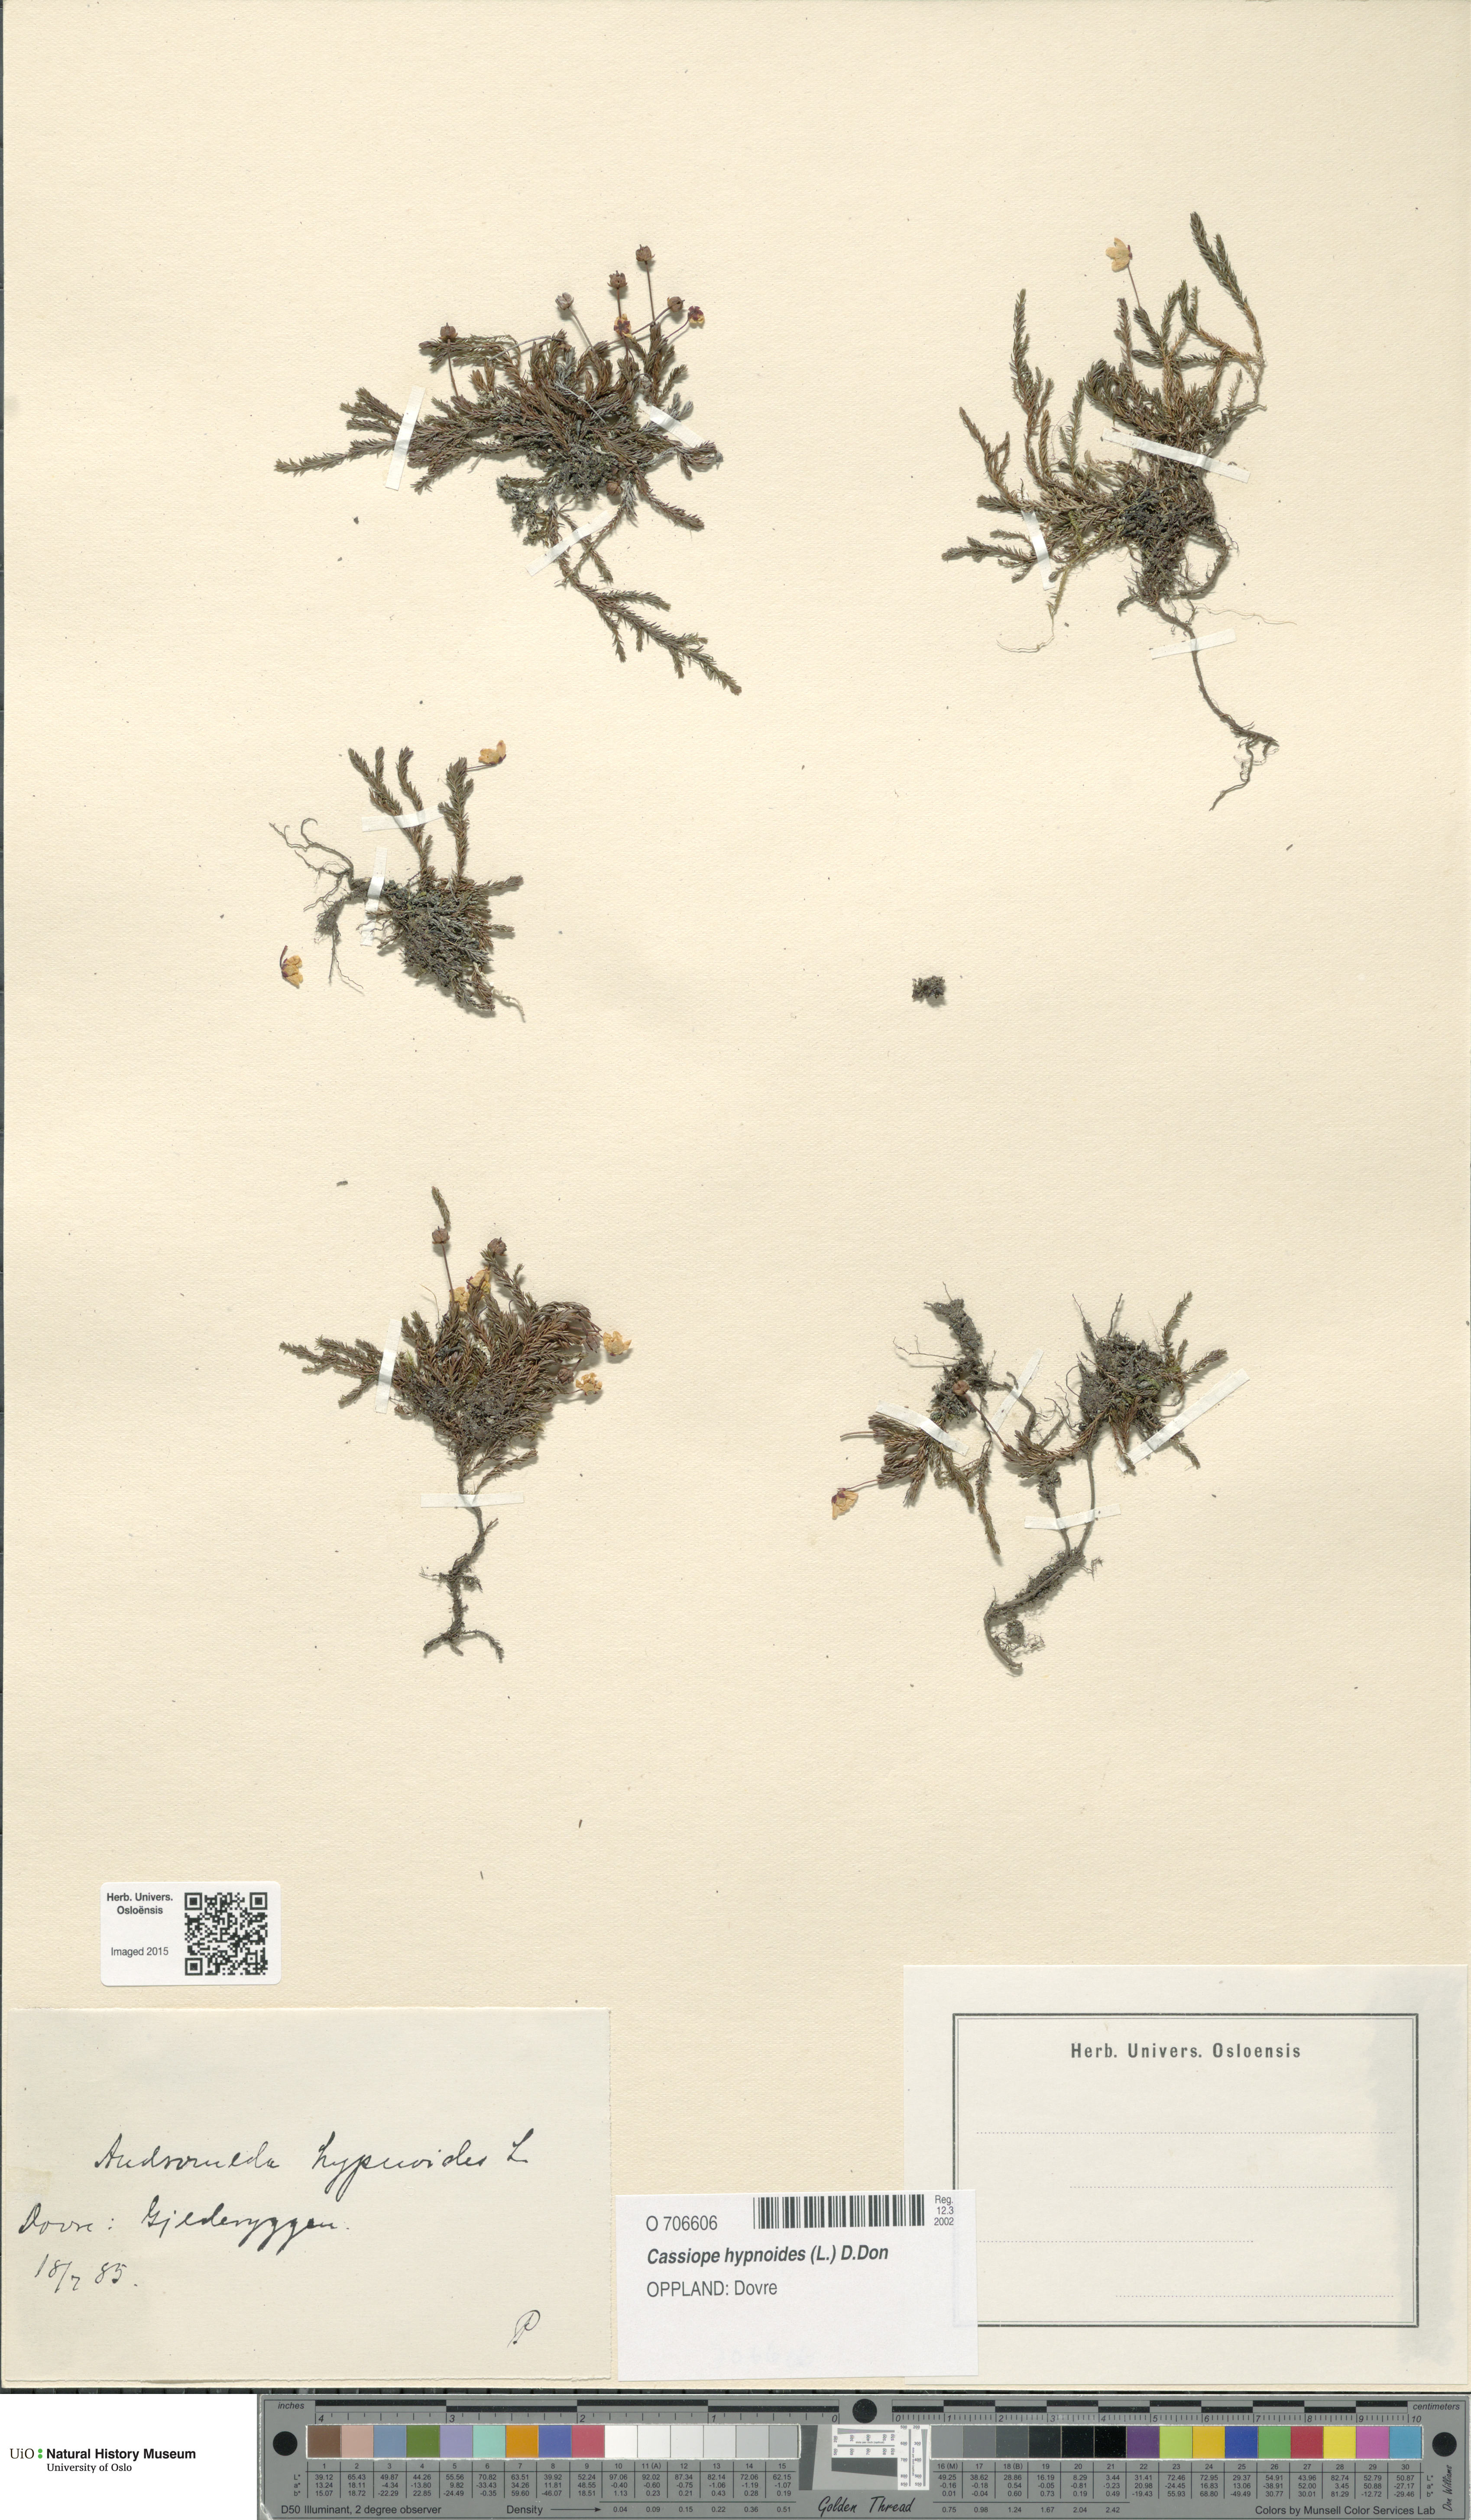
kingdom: Plantae
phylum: Tracheophyta
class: Magnoliopsida
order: Ericales
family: Ericaceae
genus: Harrimanella
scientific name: Harrimanella hypnoides
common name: Moss bell heather
